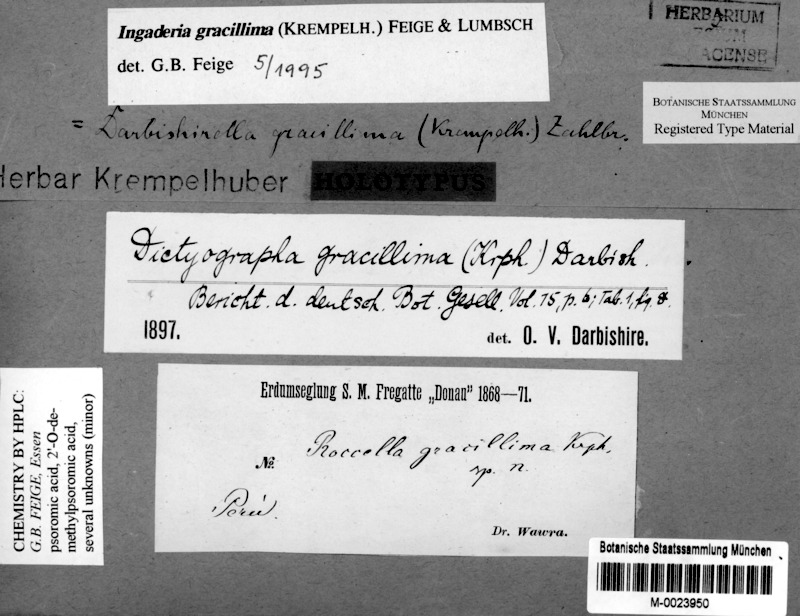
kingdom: Fungi
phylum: Ascomycota
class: Arthoniomycetes
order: Arthoniales
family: Opegraphaceae
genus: Pentagenella
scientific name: Pentagenella gracillima
